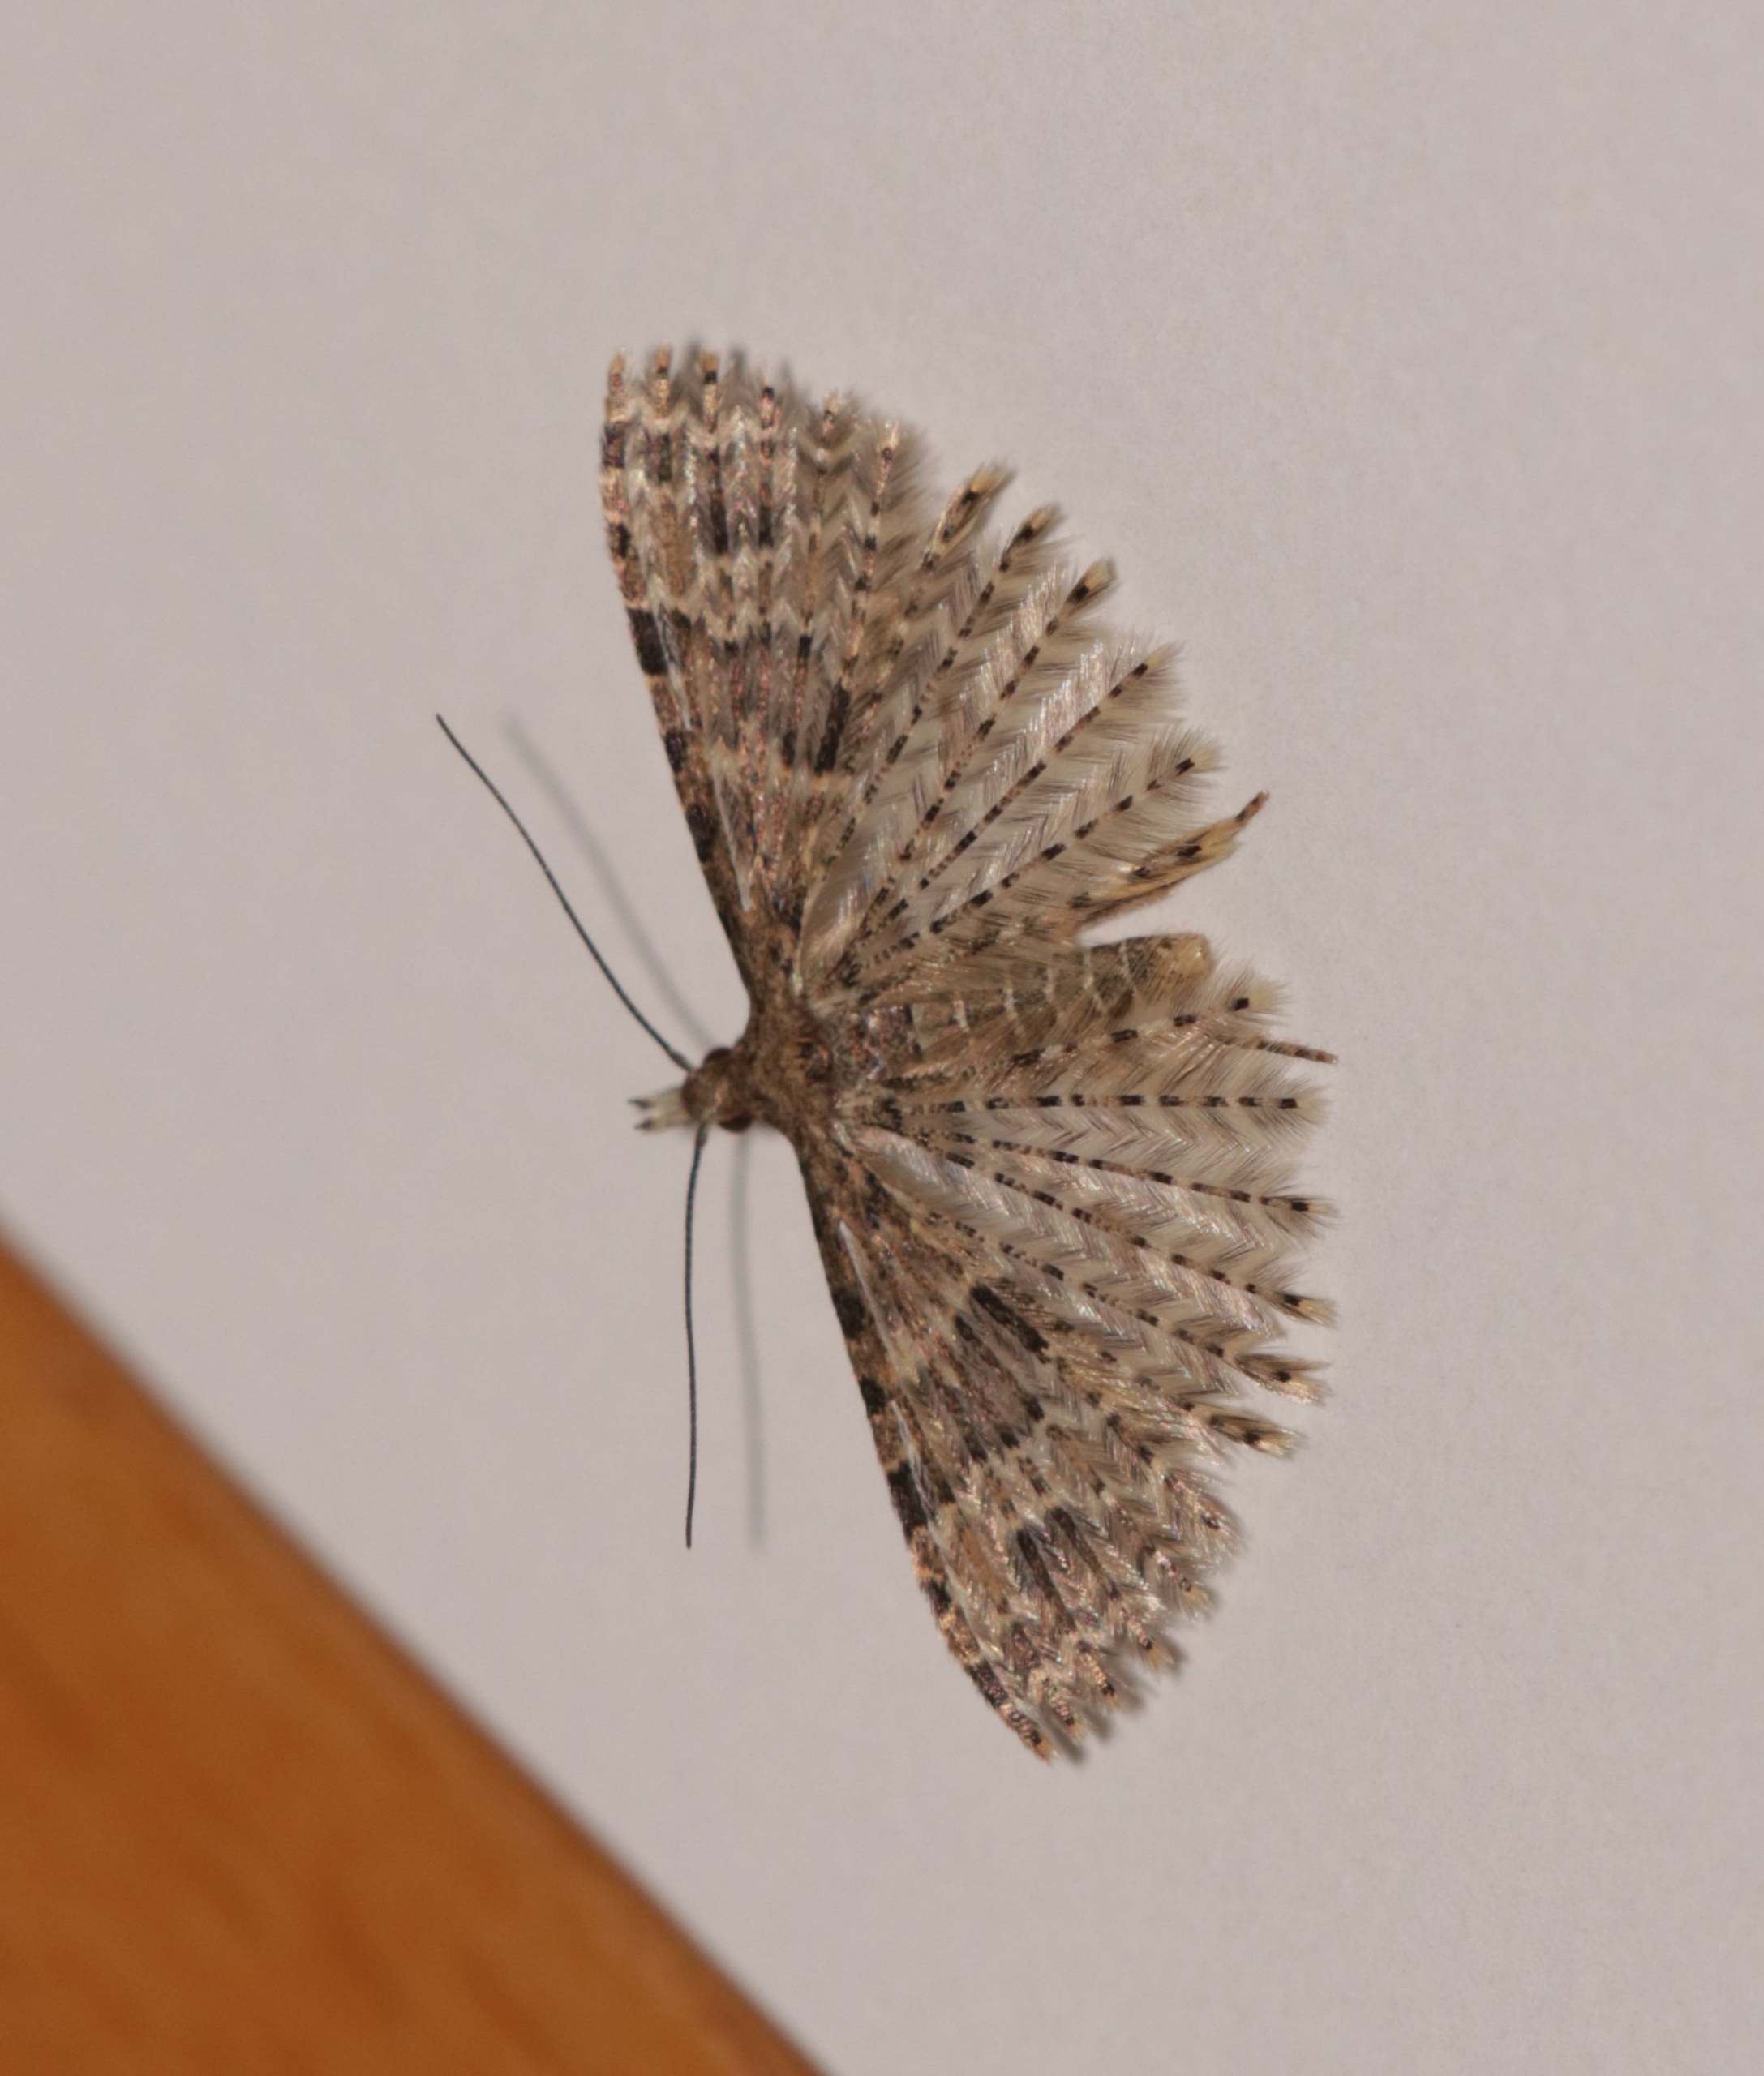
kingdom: Animalia
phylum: Arthropoda
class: Insecta
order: Lepidoptera
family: Alucitidae
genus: Alucita
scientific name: Alucita hexadactyla
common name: Kaprifoliefjermøl
